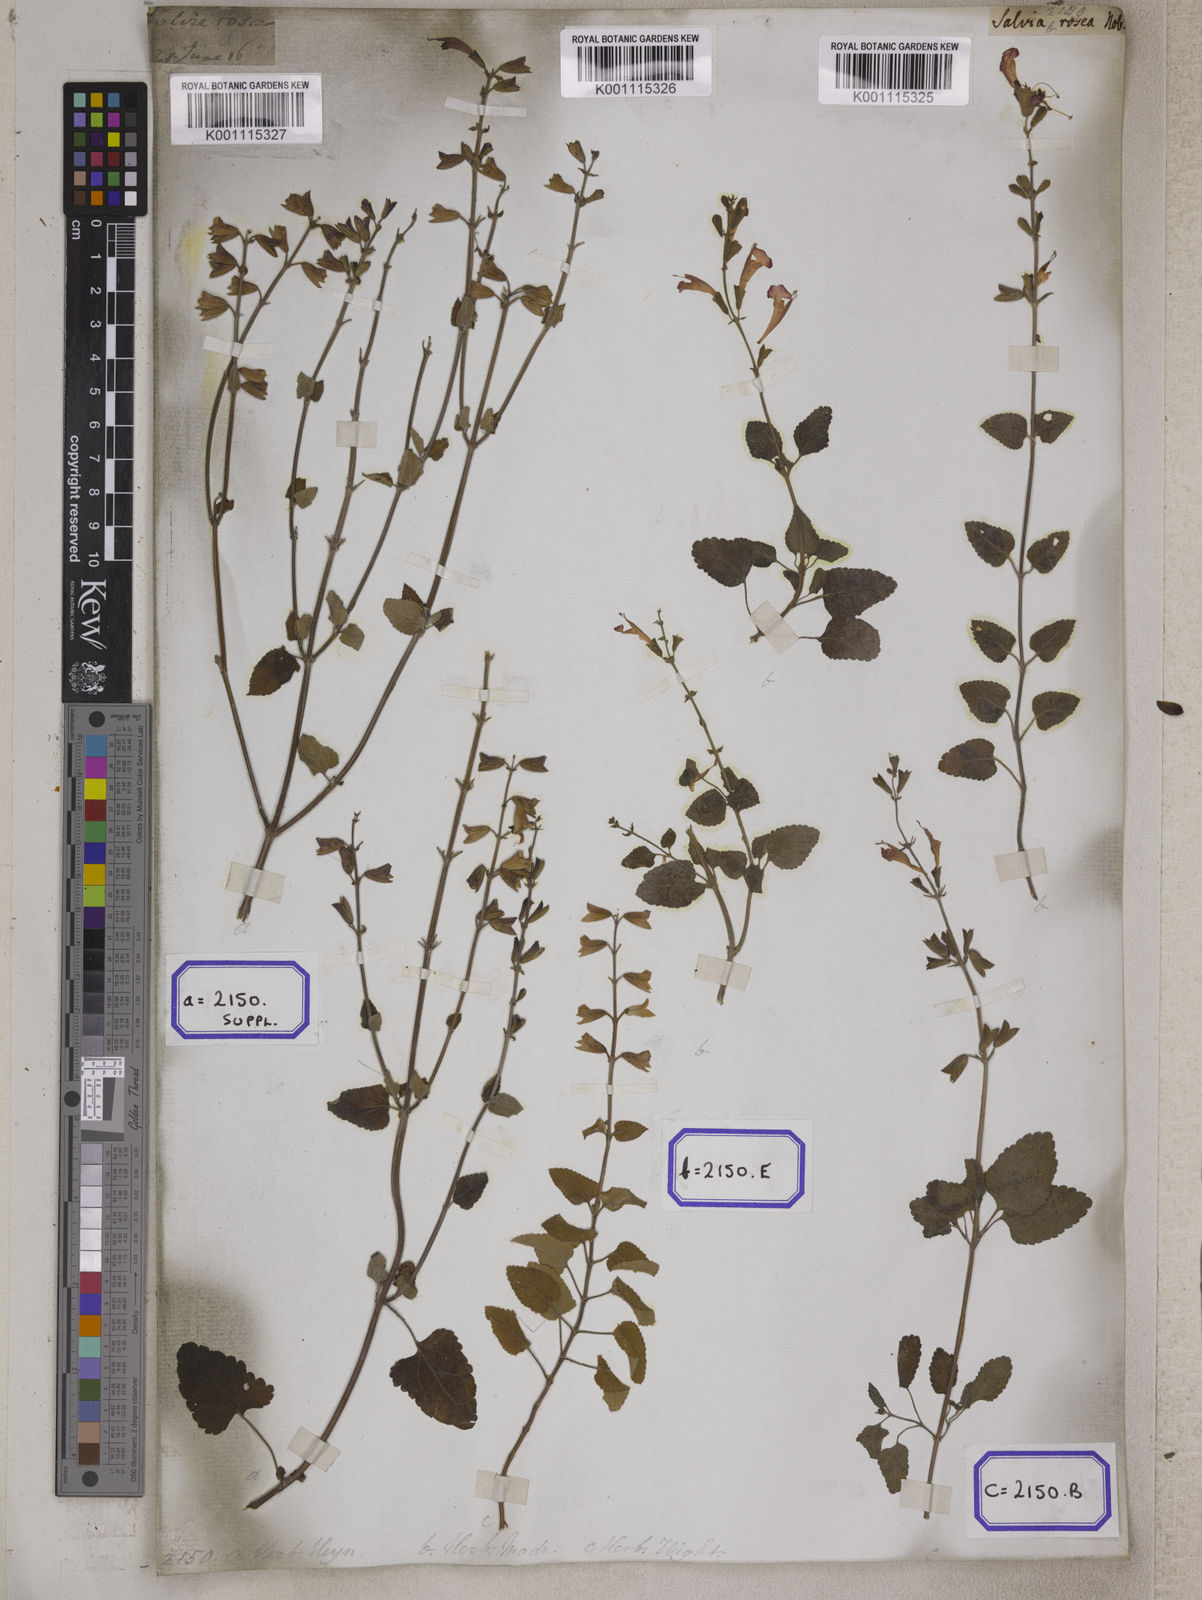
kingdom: Plantae
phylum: Tracheophyta
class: Magnoliopsida
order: Lamiales
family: Lamiaceae
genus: Salvia
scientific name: Salvia coccinea
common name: Blood sage
